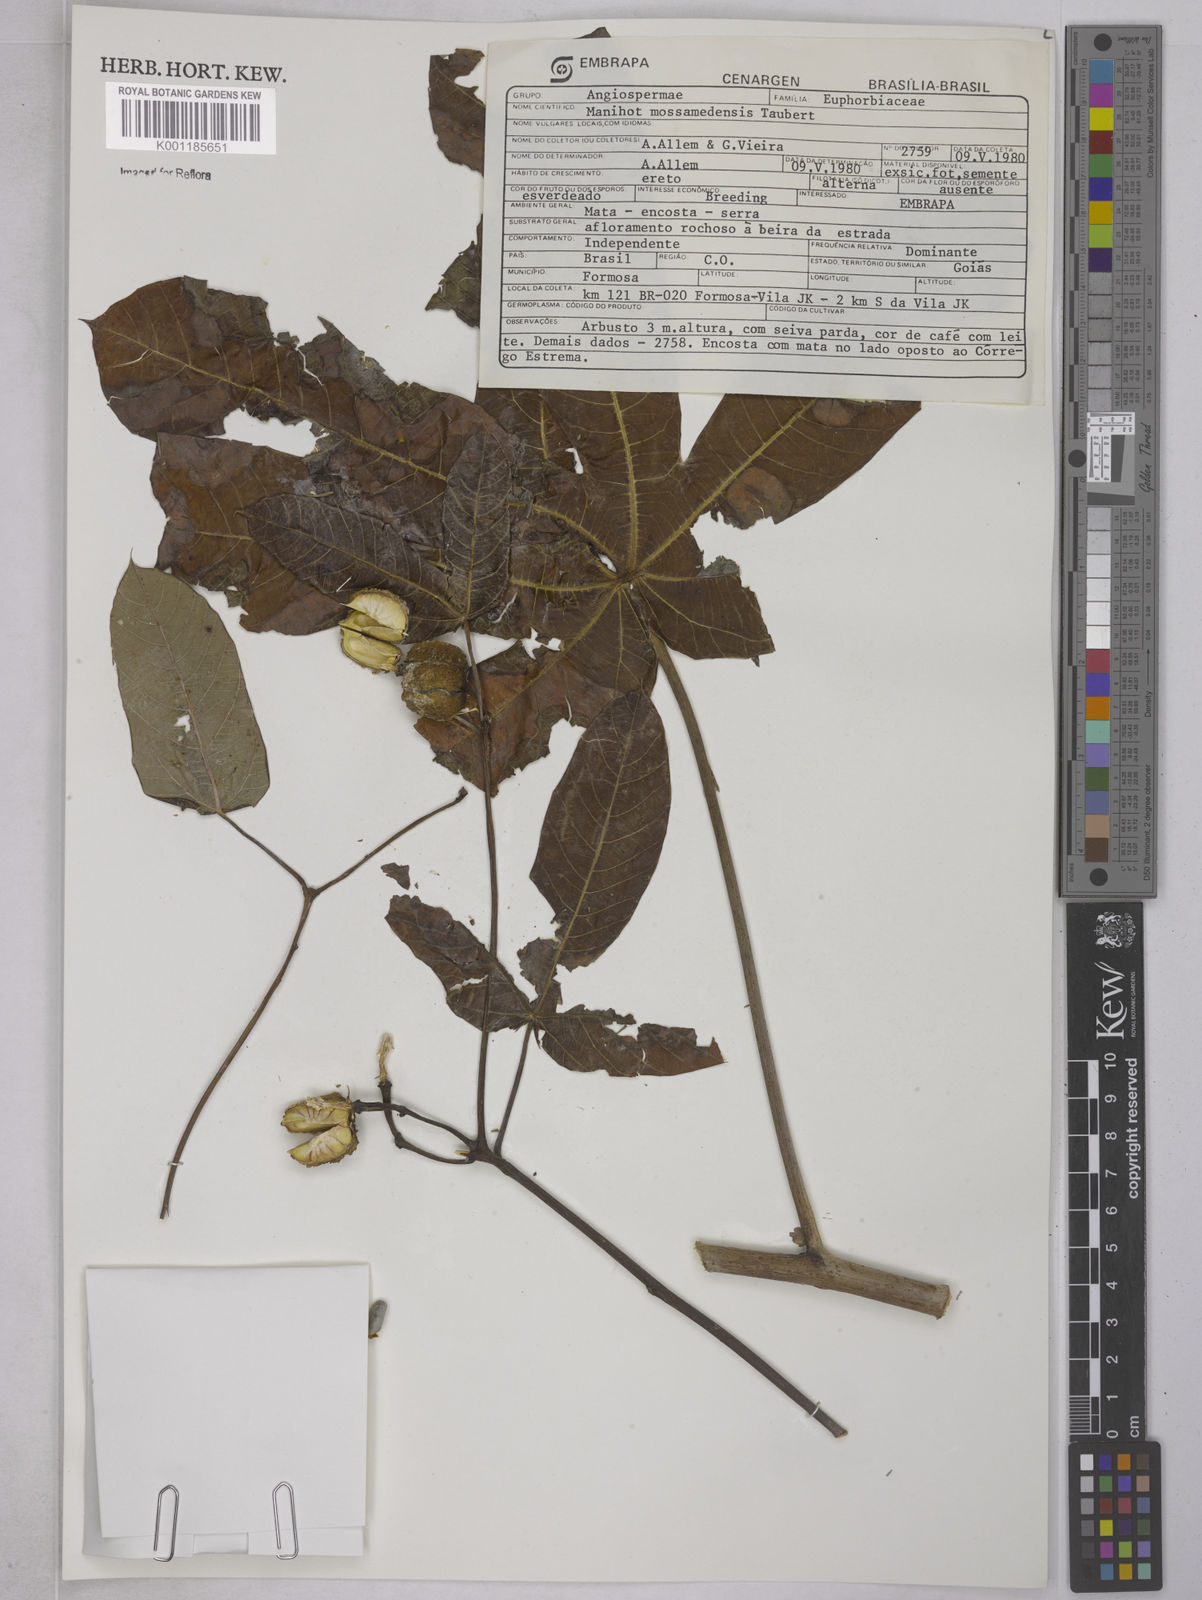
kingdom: Plantae
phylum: Tracheophyta
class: Magnoliopsida
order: Malpighiales
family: Euphorbiaceae
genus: Manihot
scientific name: Manihot mossamedensis
